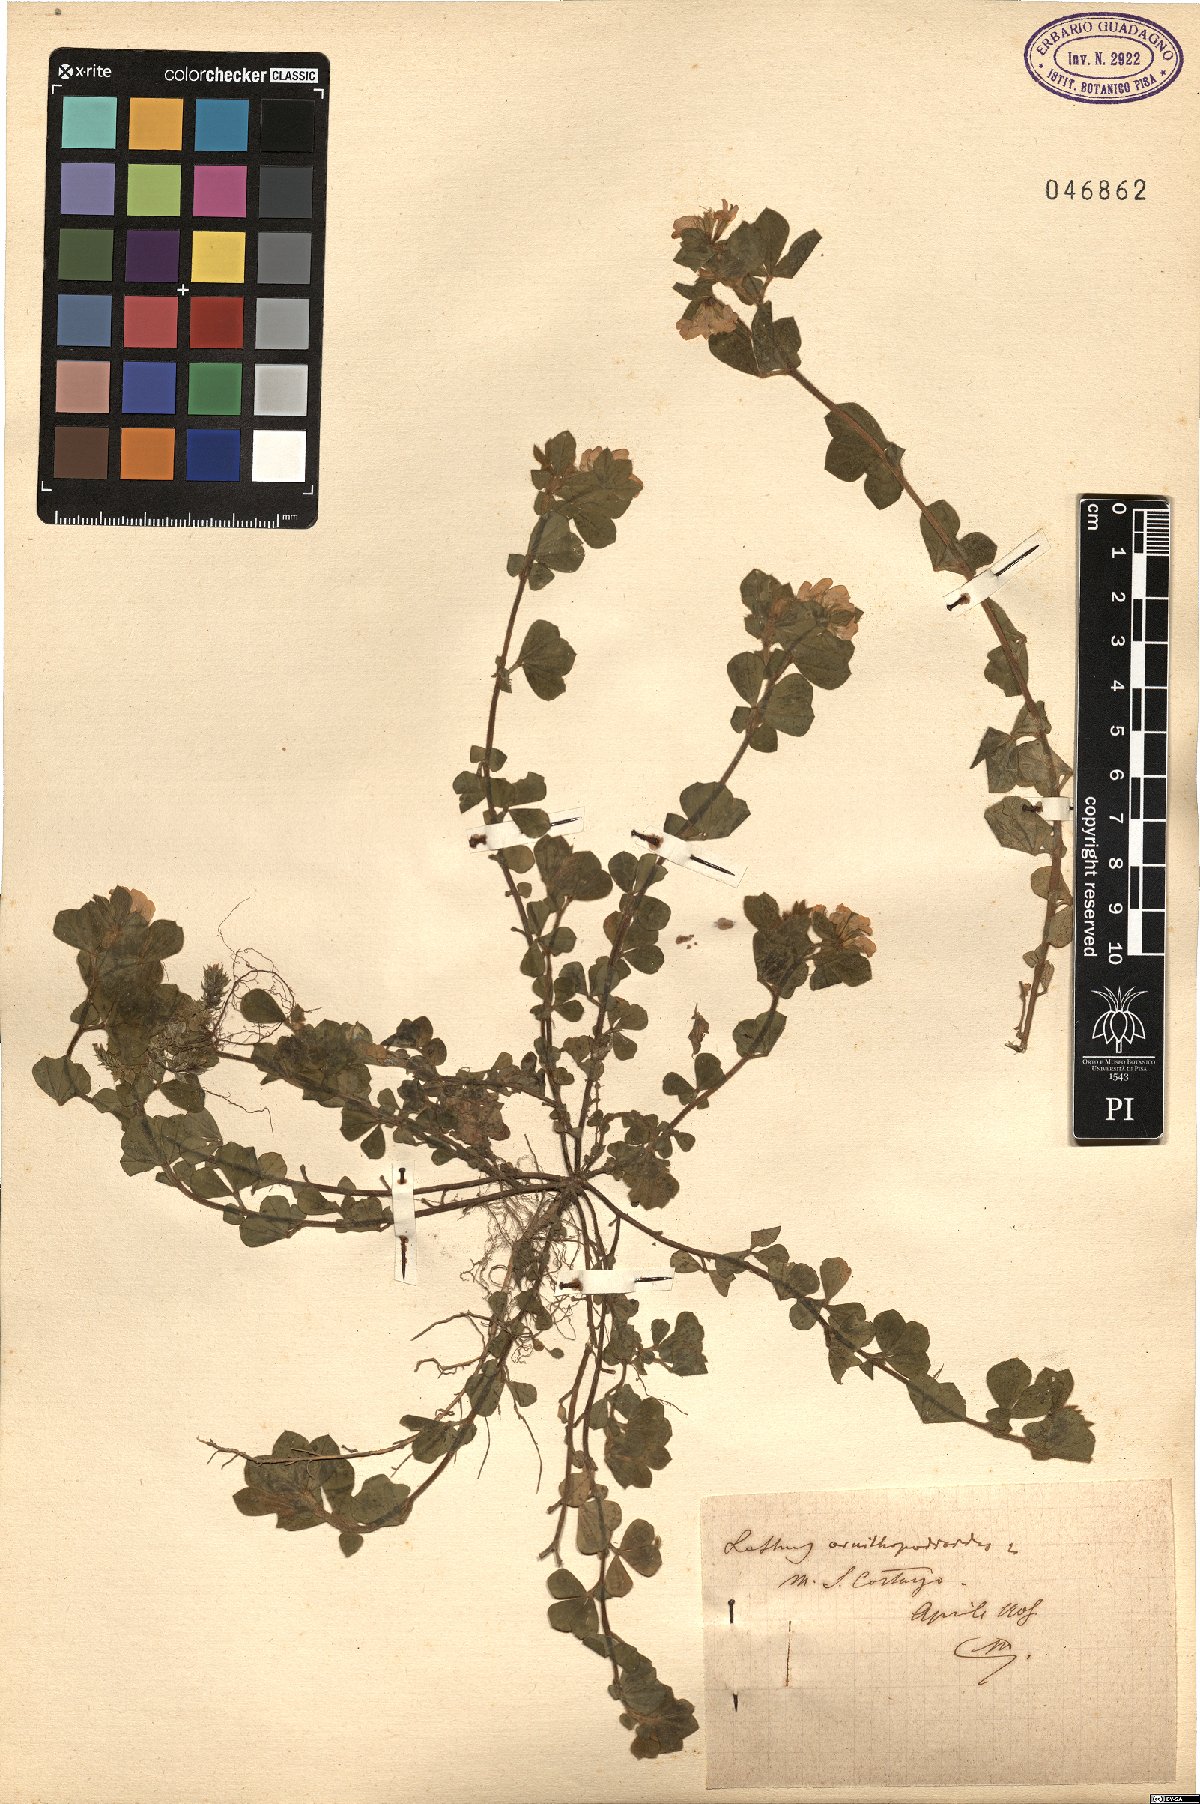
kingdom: Plantae
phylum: Tracheophyta
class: Magnoliopsida
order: Fabales
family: Fabaceae
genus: Lotus
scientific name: Lotus ornithopodioides
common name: Southern bird's-foot trefoil
